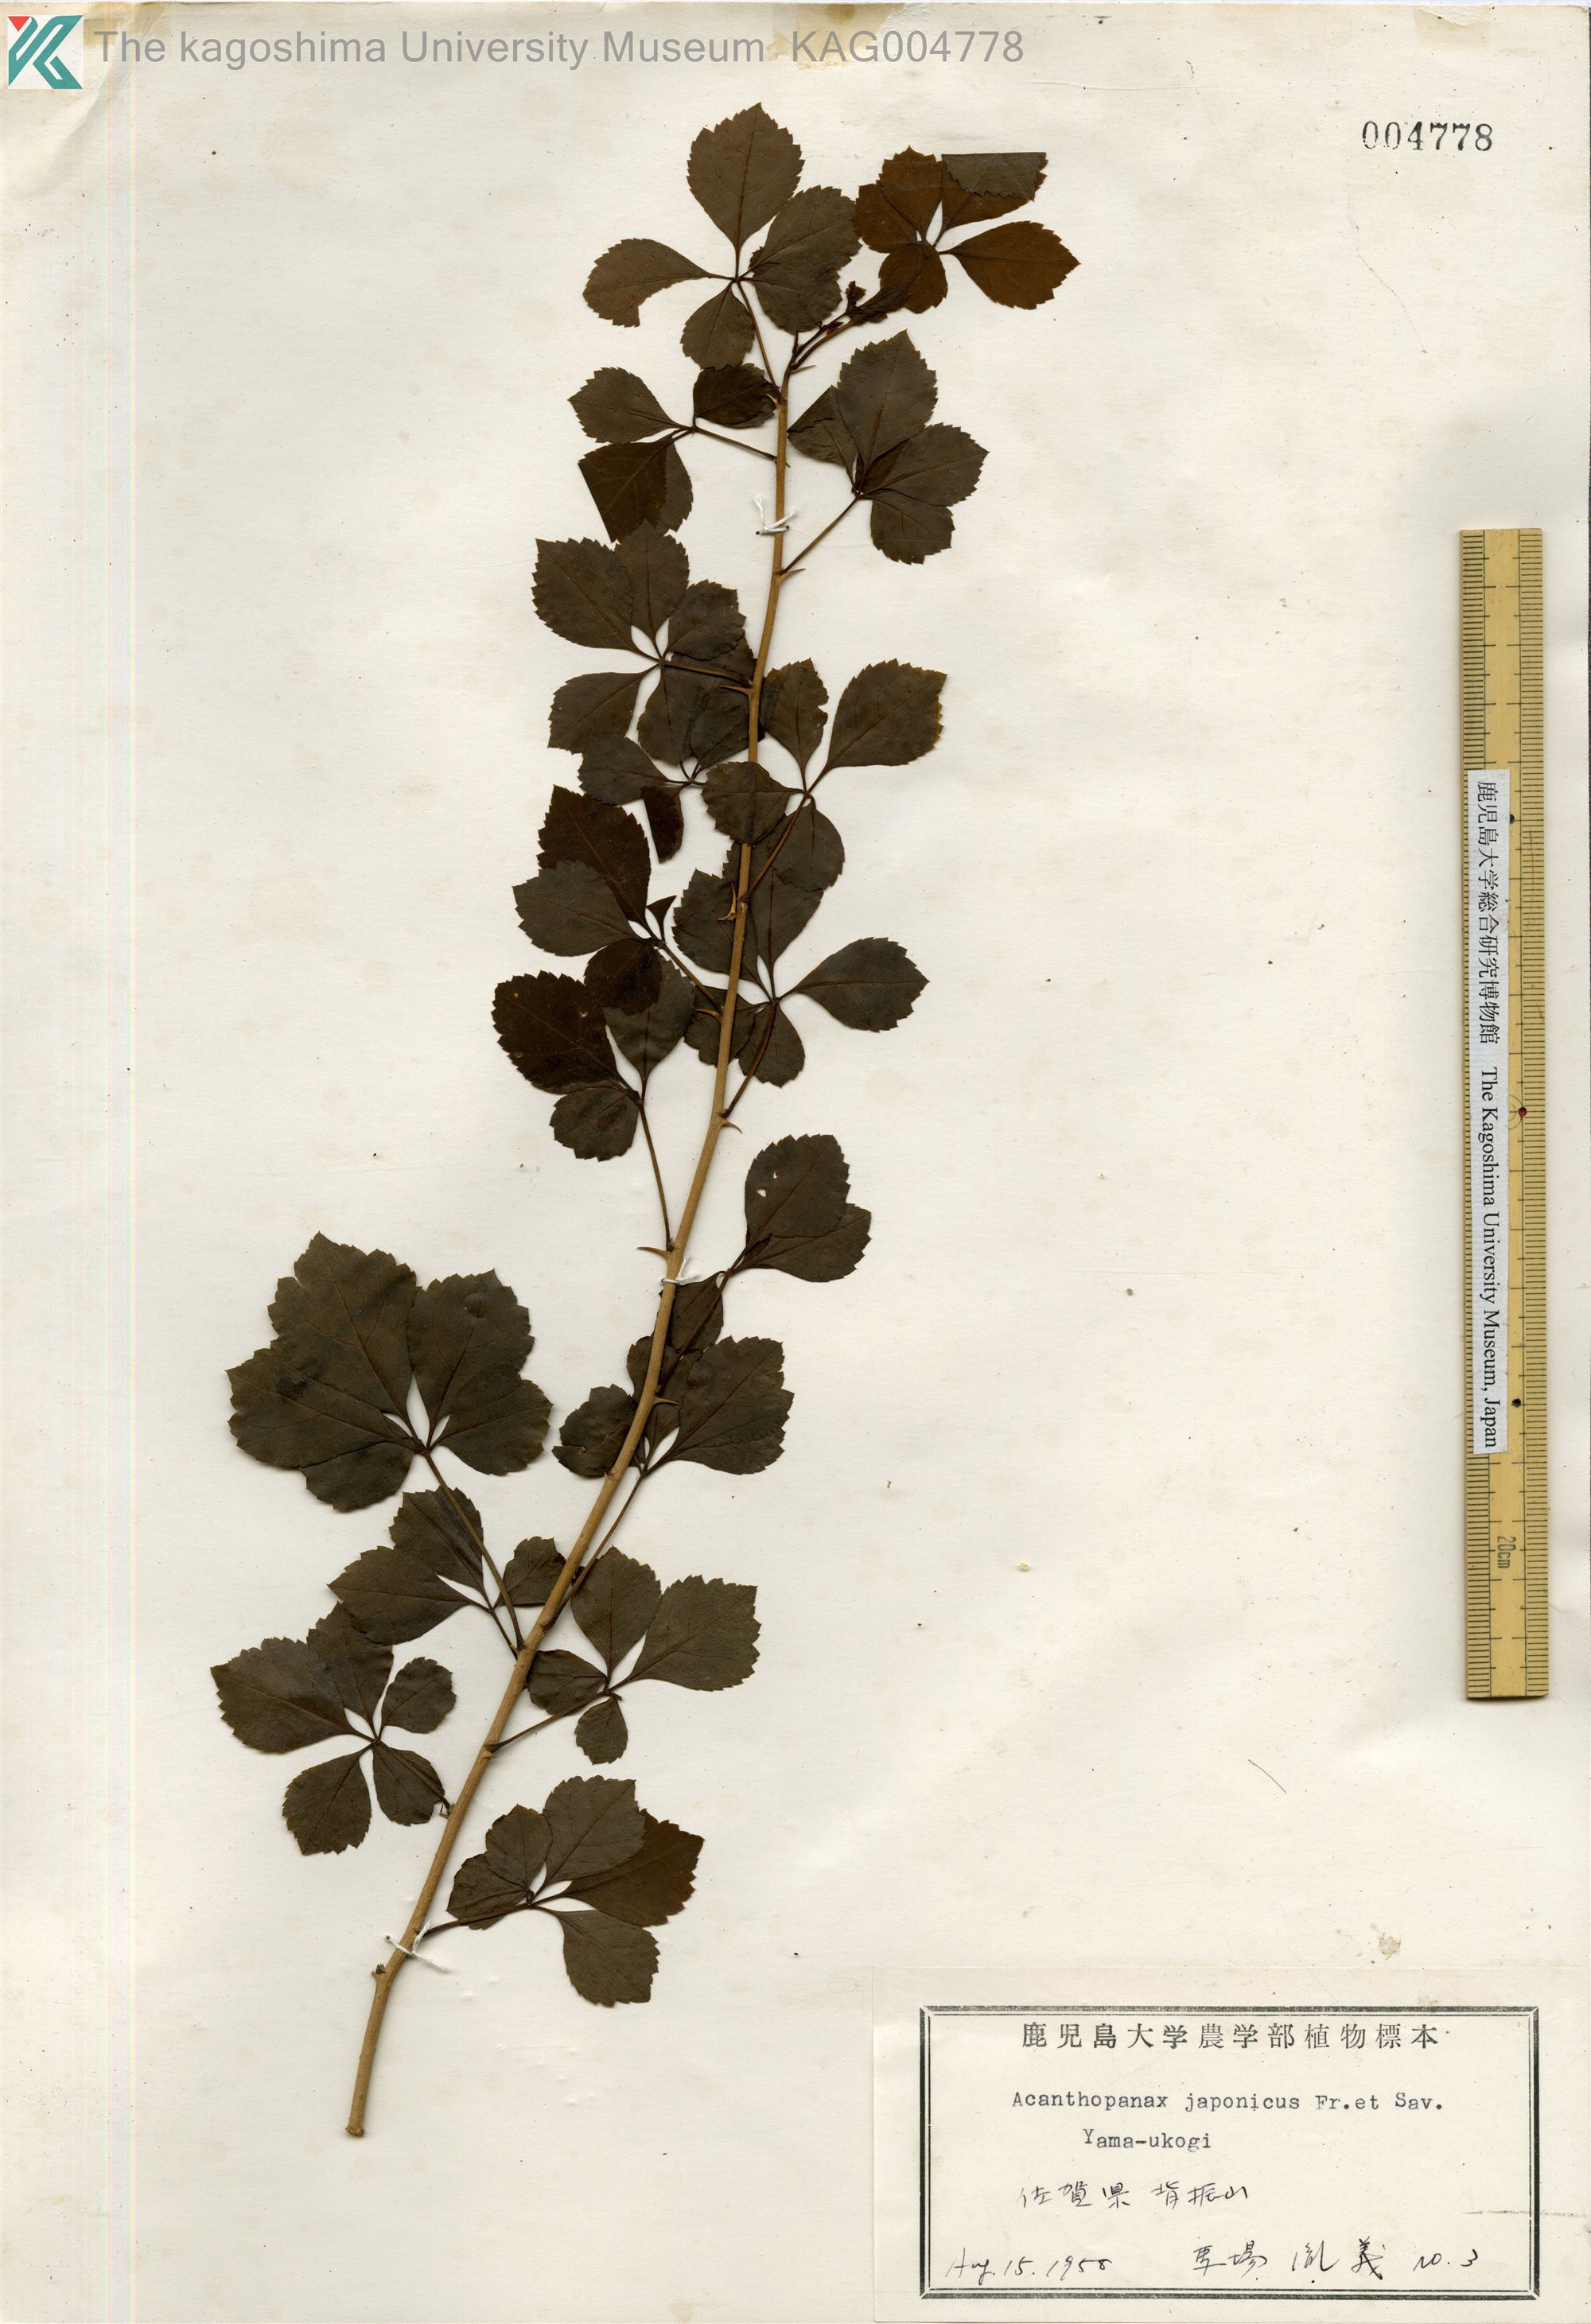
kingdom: Plantae
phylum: Tracheophyta
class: Magnoliopsida
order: Apiales
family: Araliaceae
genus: Eleutherococcus
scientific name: Eleutherococcus japonicus
